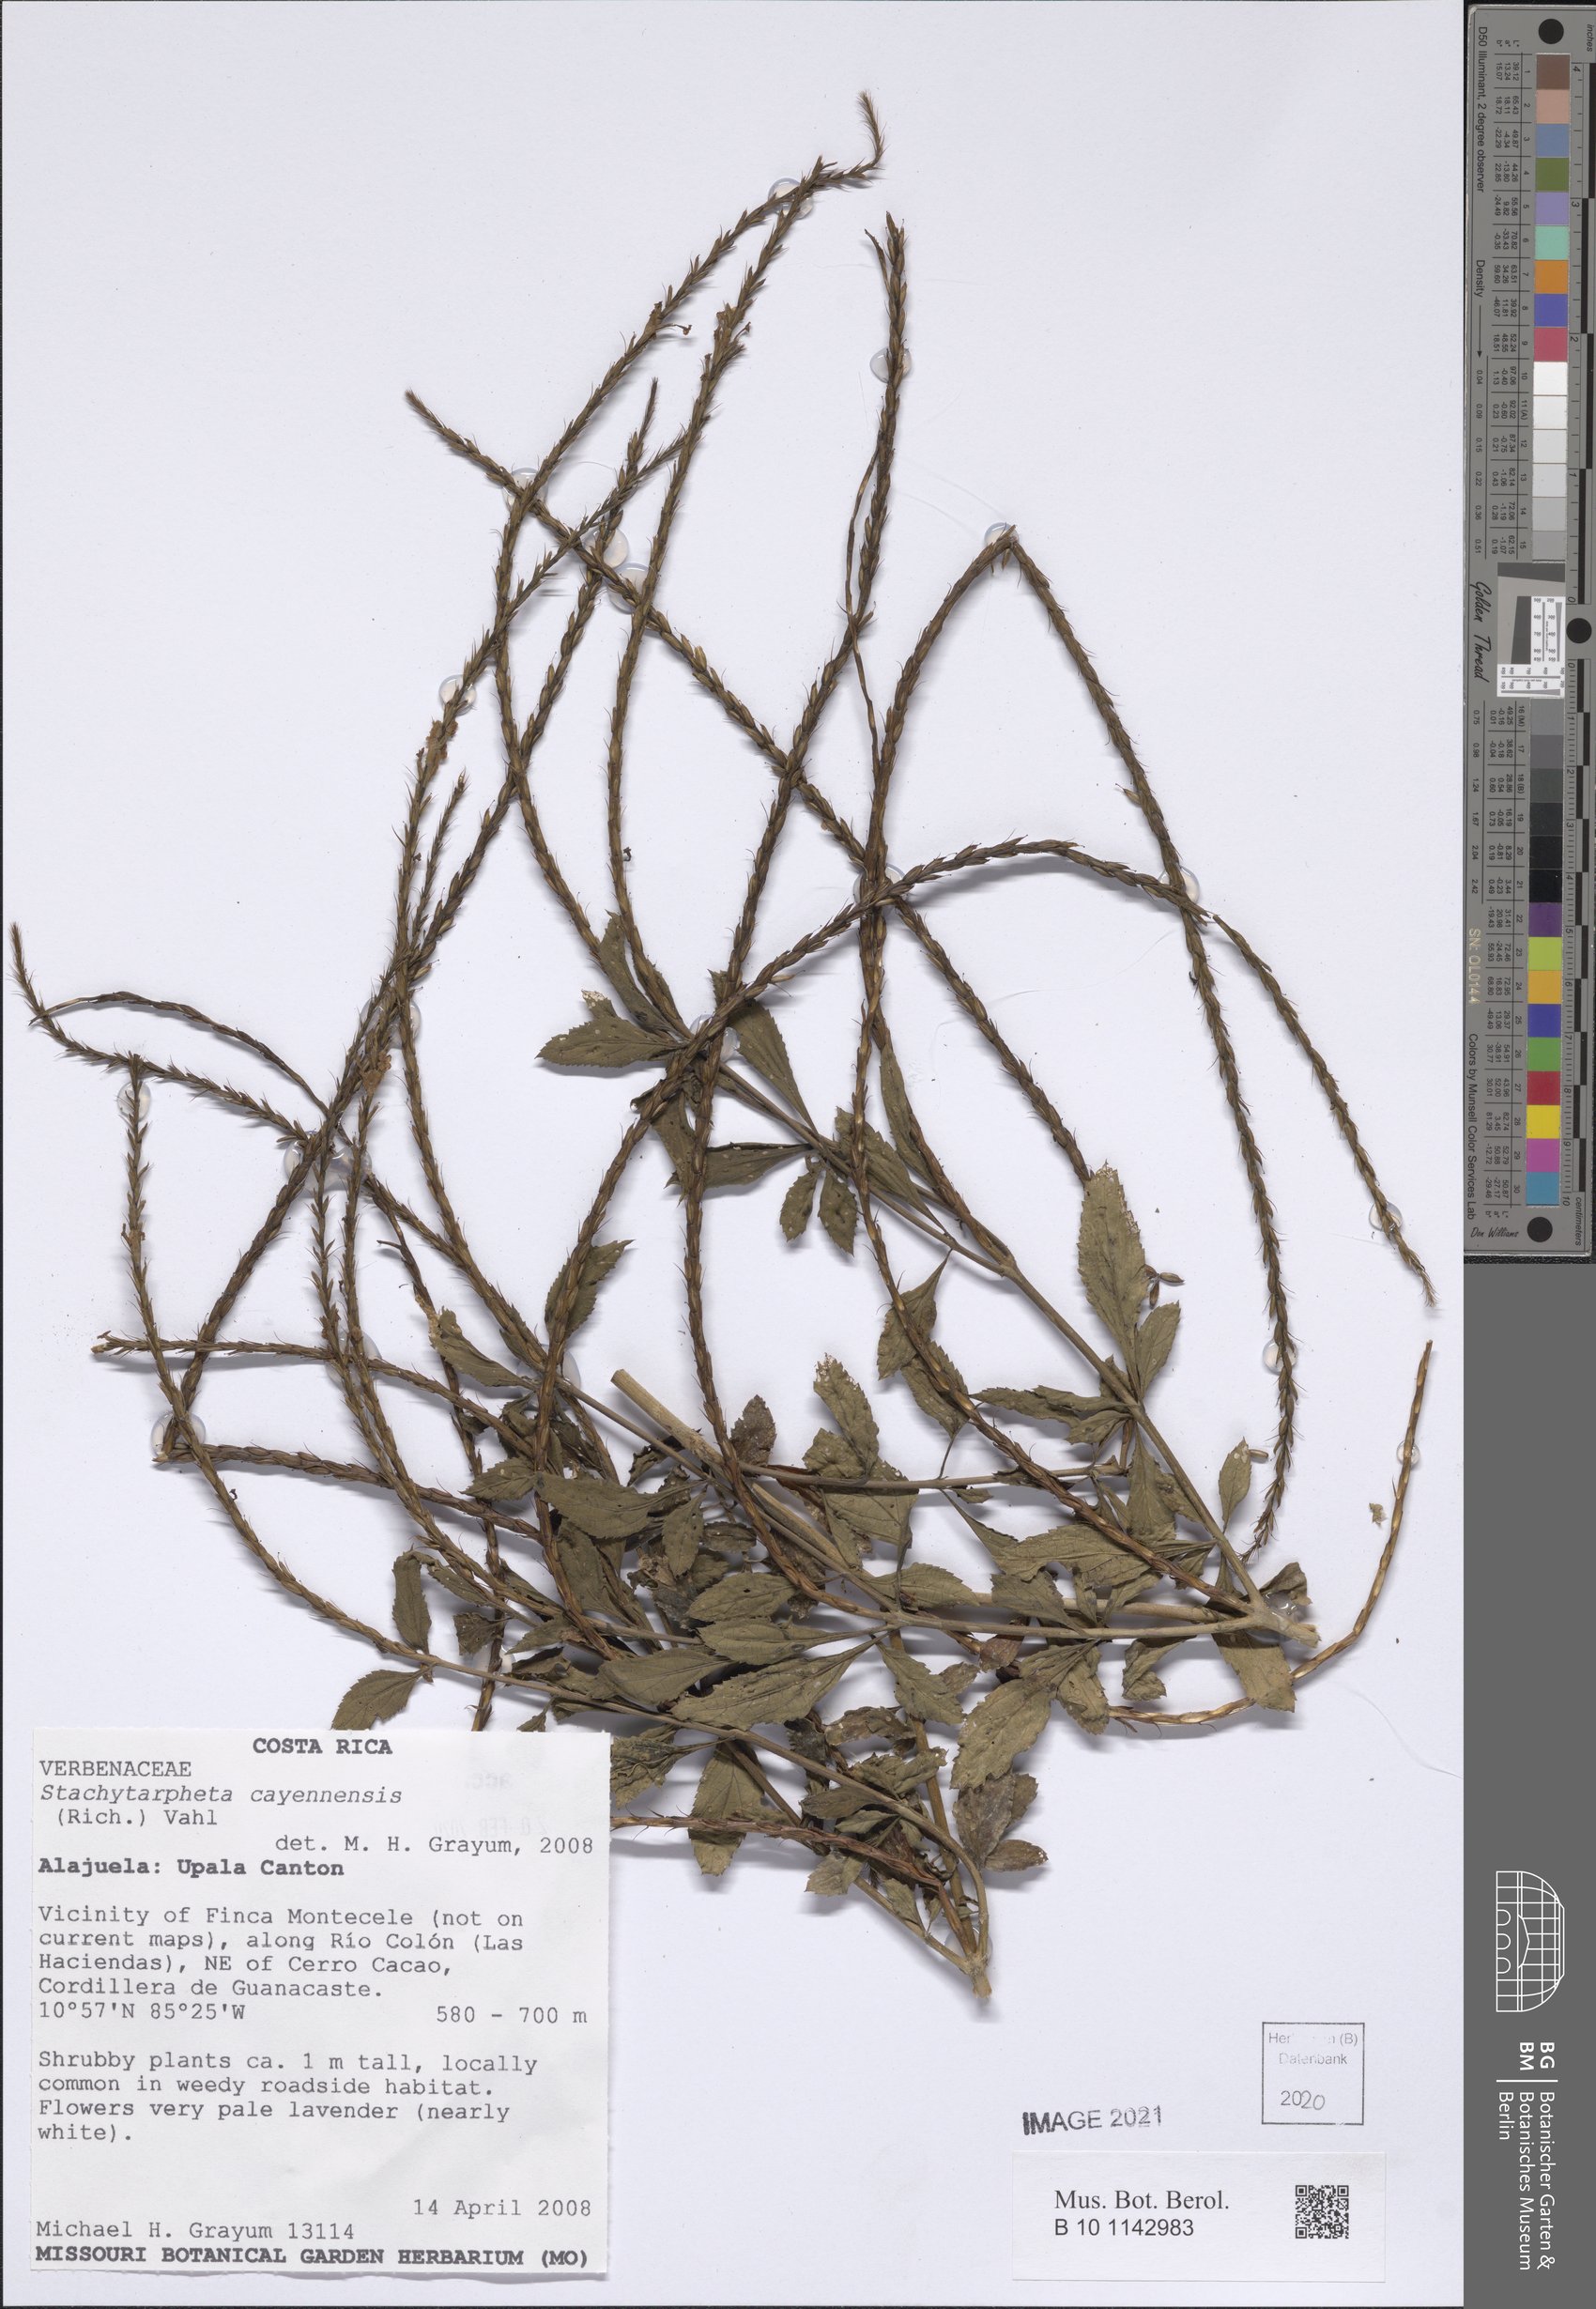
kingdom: Plantae
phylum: Tracheophyta
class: Magnoliopsida
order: Lamiales
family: Verbenaceae
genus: Stachytarpheta
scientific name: Stachytarpheta cayennensis
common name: Cayenne porterweed
